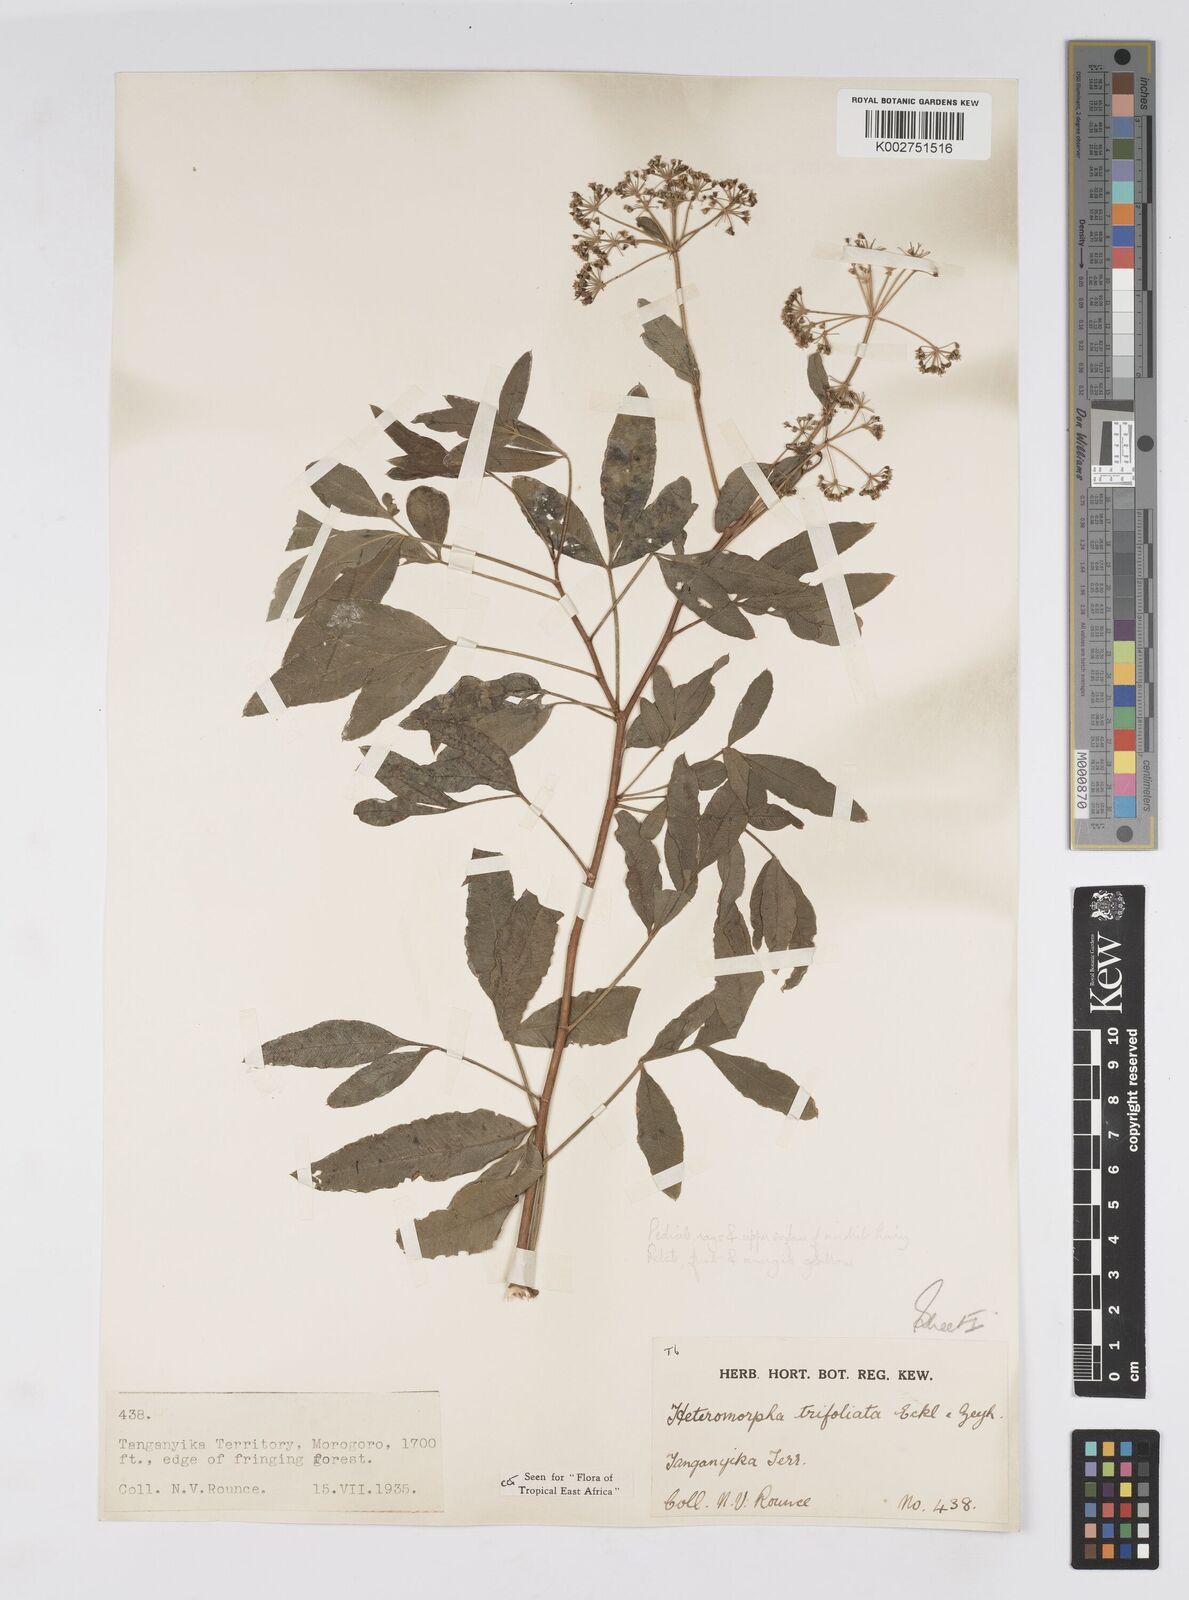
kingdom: Plantae
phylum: Tracheophyta
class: Magnoliopsida
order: Apiales
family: Apiaceae
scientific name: Apiaceae
